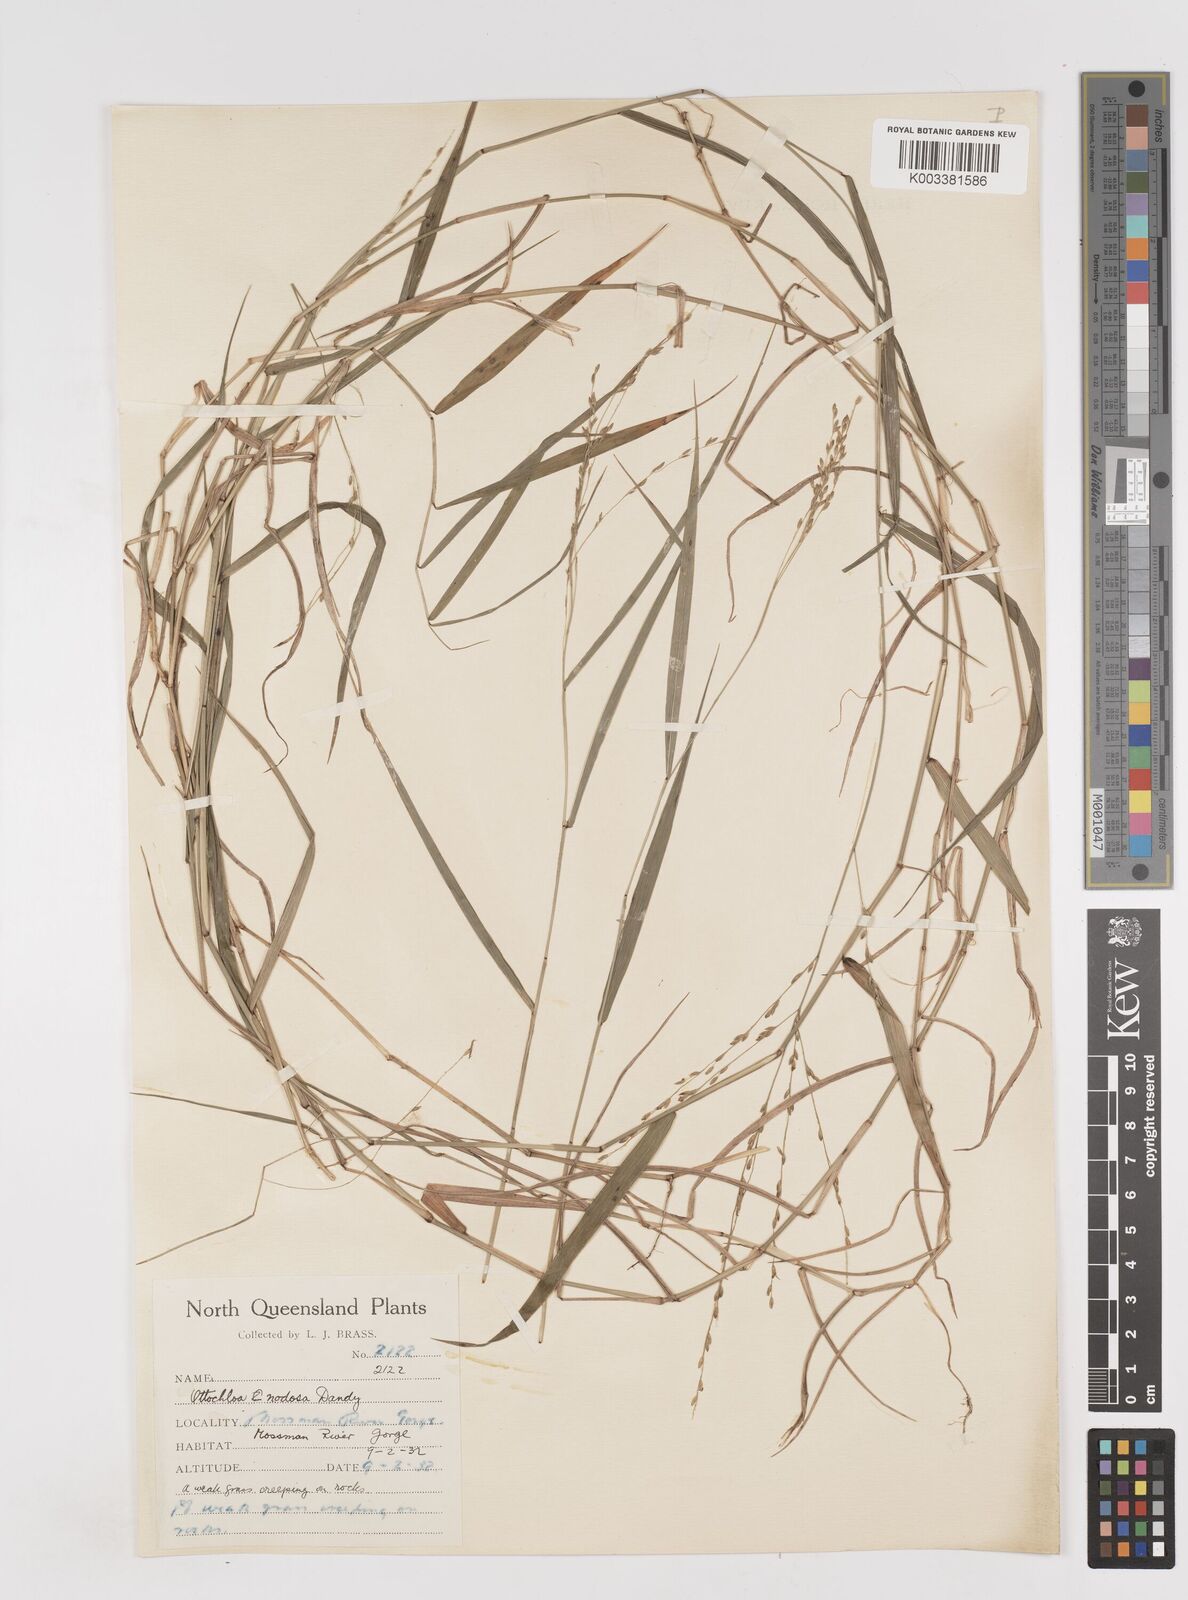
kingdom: Plantae
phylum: Tracheophyta
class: Liliopsida
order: Poales
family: Poaceae
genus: Ottochloa
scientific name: Ottochloa nodosa
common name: Slender-panic grass
